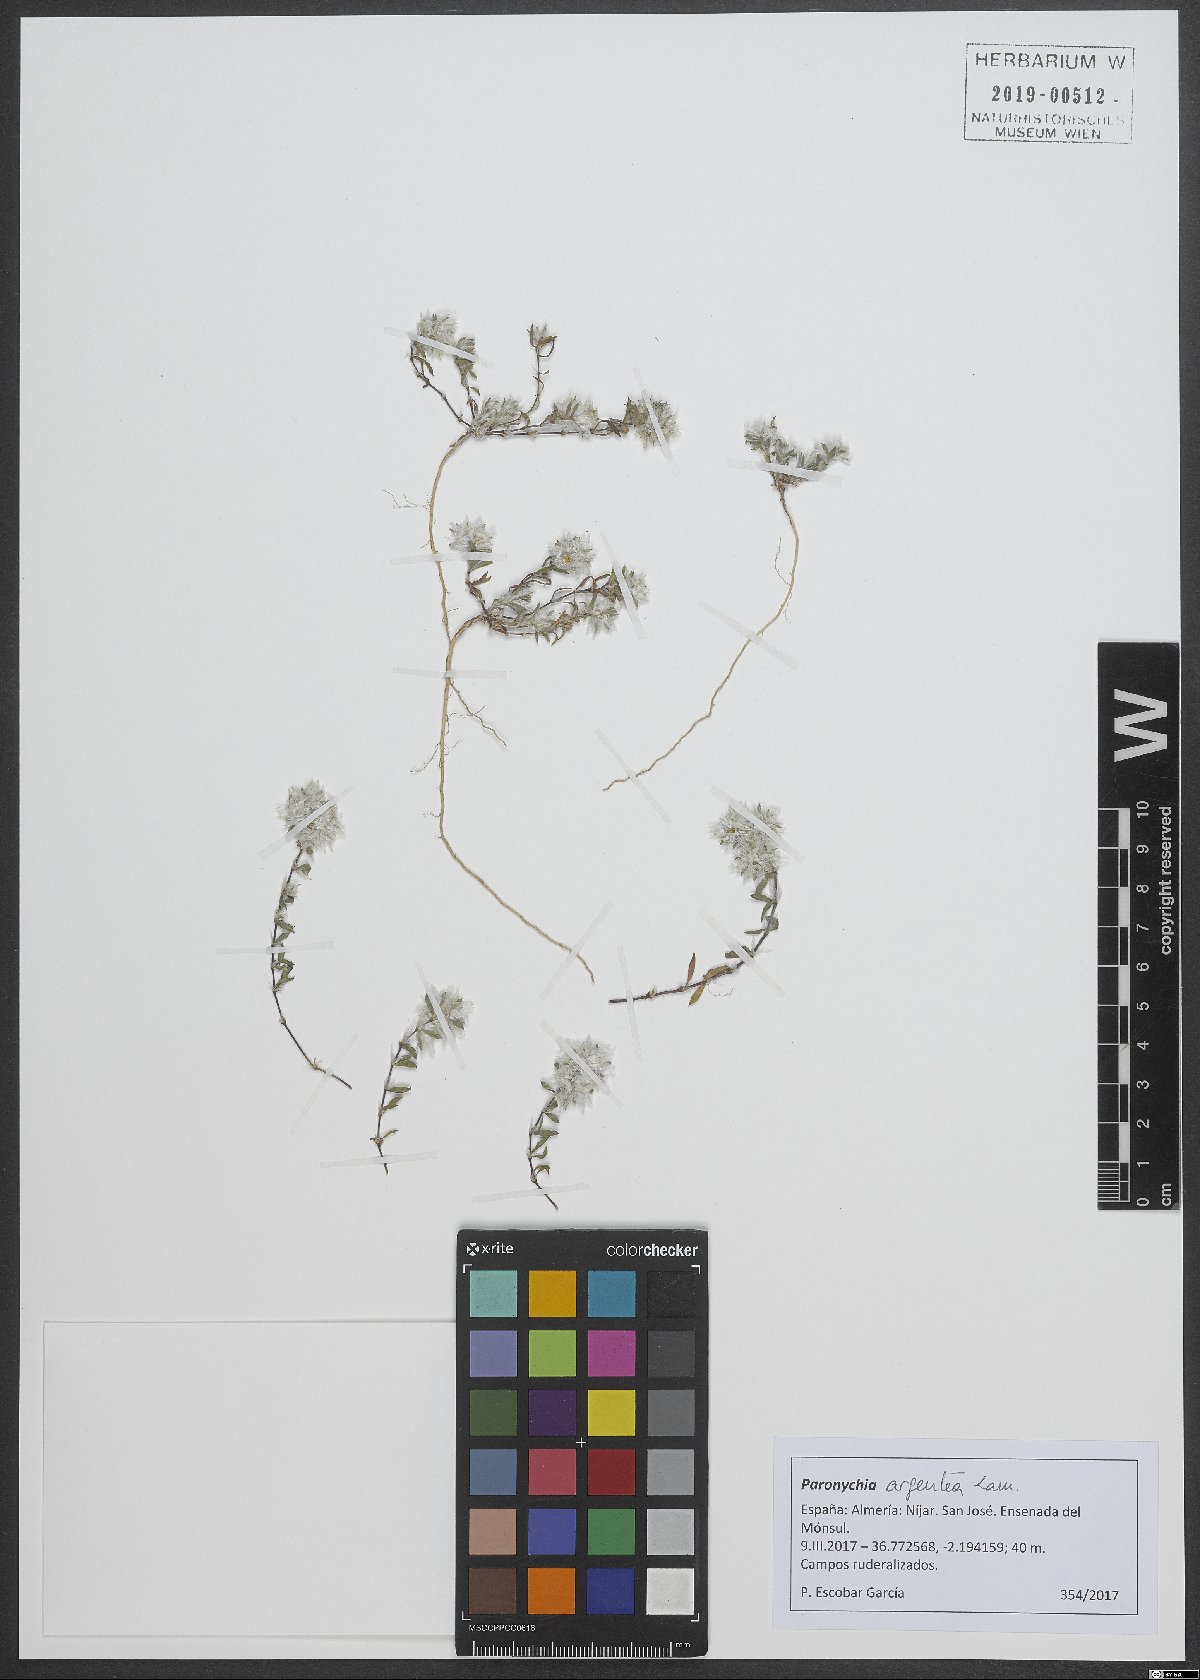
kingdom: Plantae
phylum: Tracheophyta
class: Magnoliopsida
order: Caryophyllales
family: Caryophyllaceae
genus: Paronychia
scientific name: Paronychia argentea
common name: Silver nailroot
